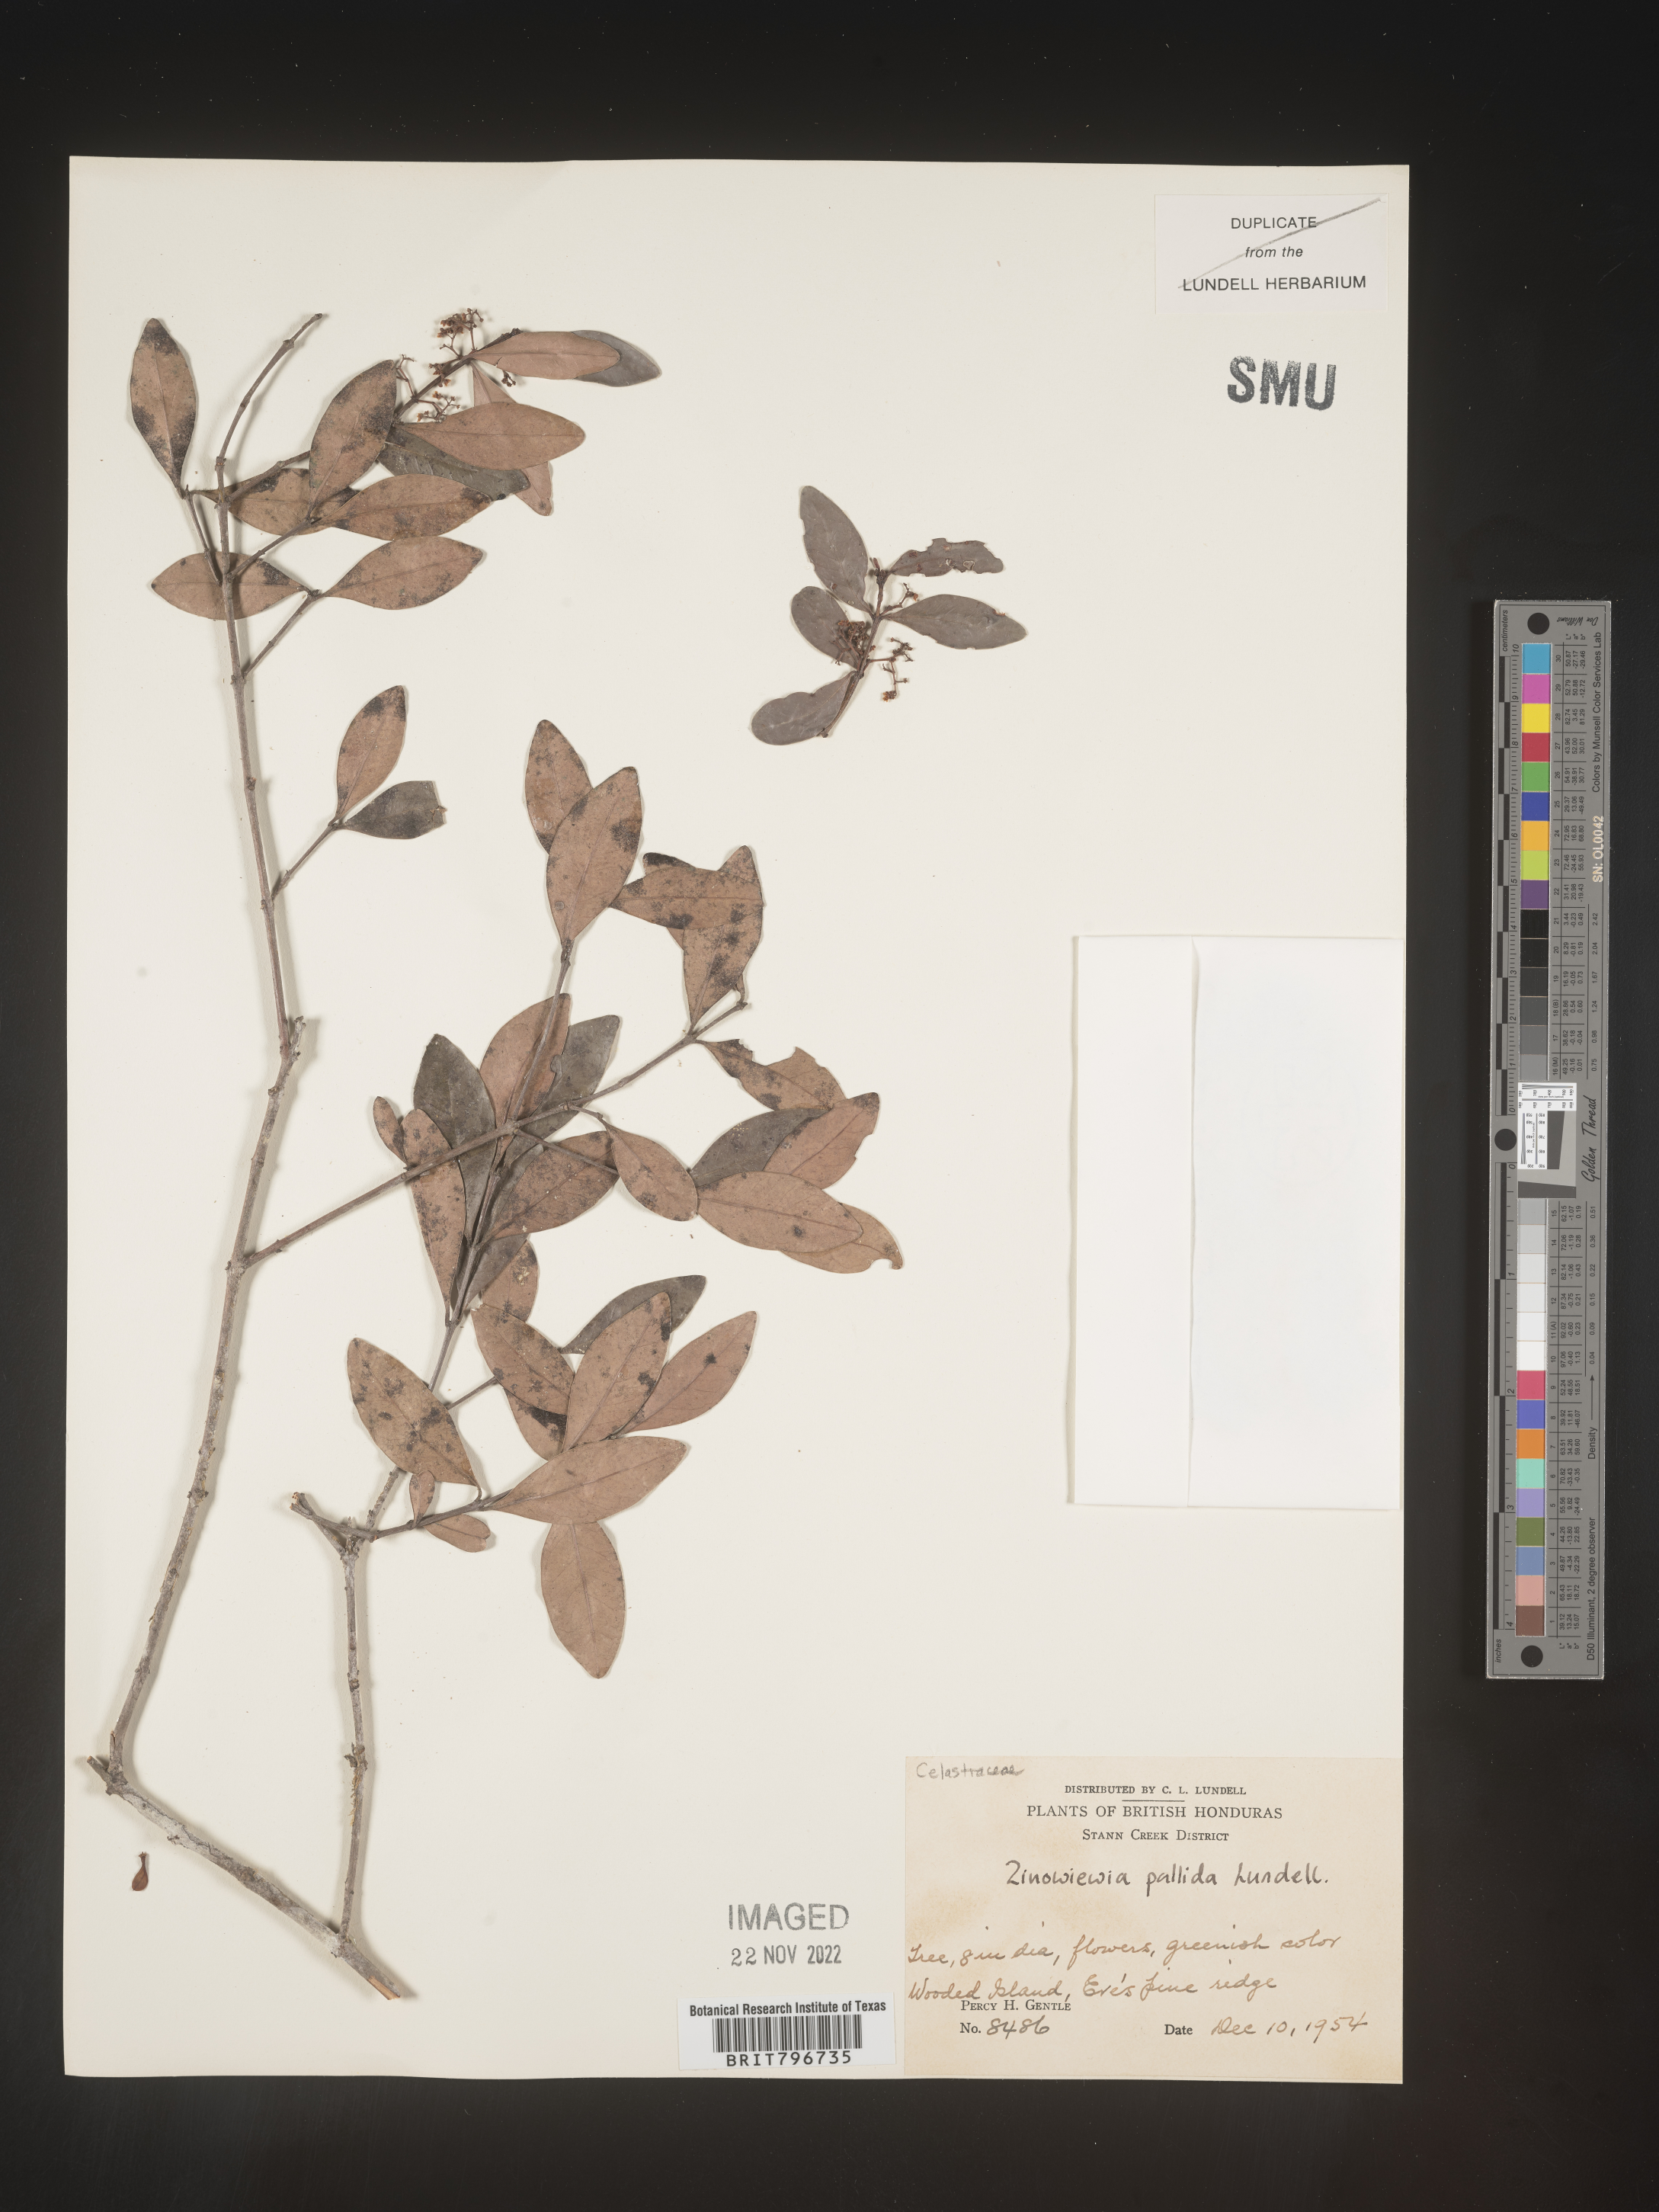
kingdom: Plantae
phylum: Tracheophyta
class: Magnoliopsida
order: Celastrales
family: Celastraceae
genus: Zinowiewia
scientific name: Zinowiewia
